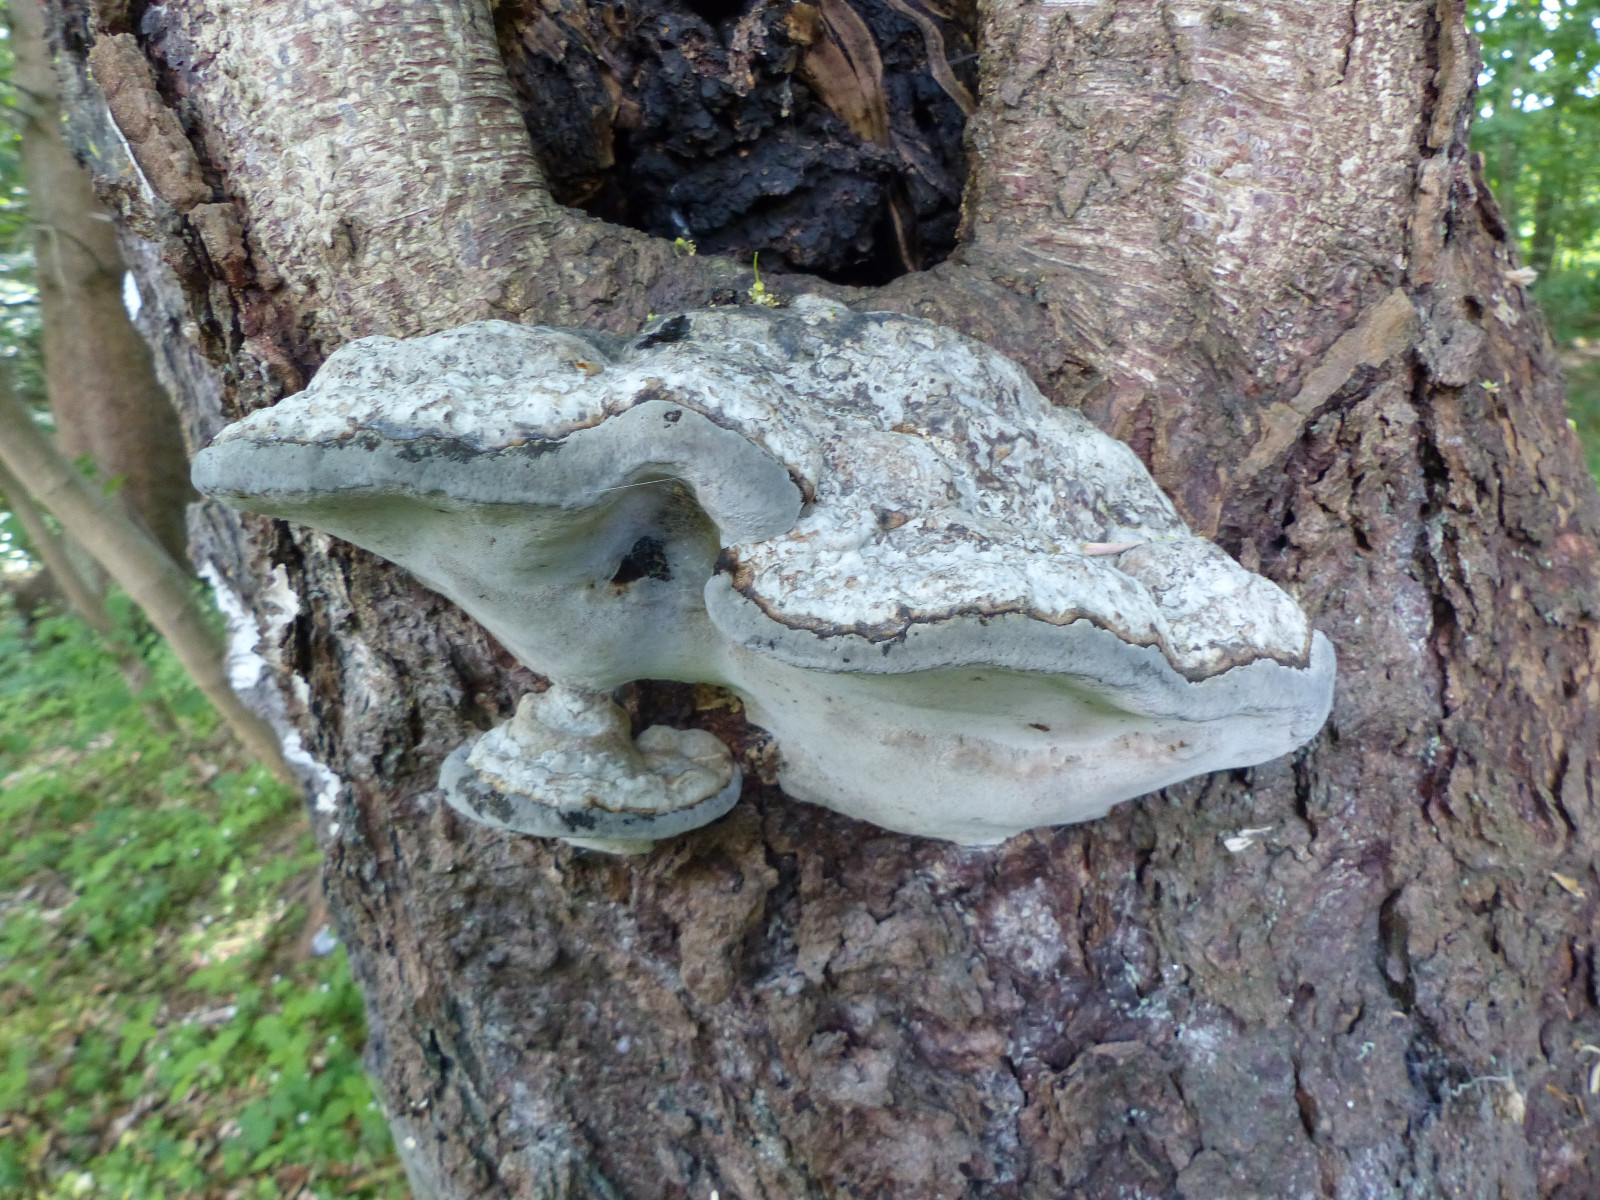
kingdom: Fungi
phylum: Basidiomycota
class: Agaricomycetes
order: Polyporales
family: Polyporaceae
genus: Fomes
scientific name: Fomes fomentarius
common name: tøndersvamp
